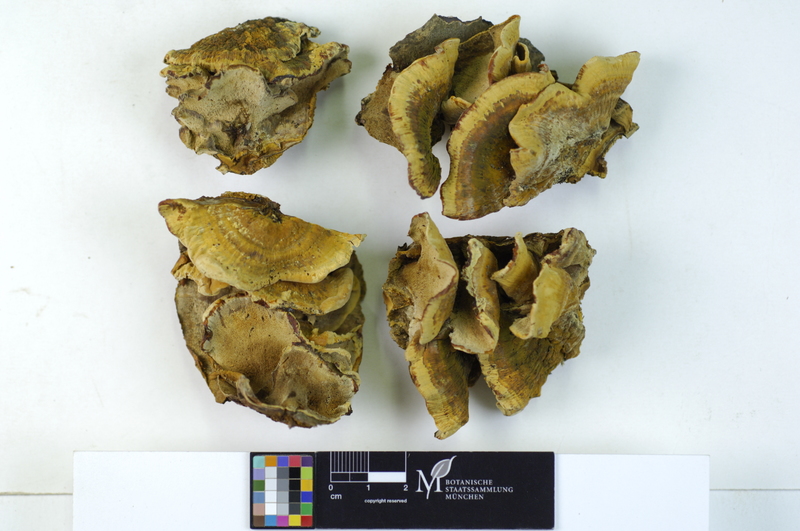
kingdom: Plantae
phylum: Tracheophyta
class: Magnoliopsida
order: Fagales
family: Fagaceae
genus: Fagus
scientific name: Fagus sylvatica
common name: Beech
